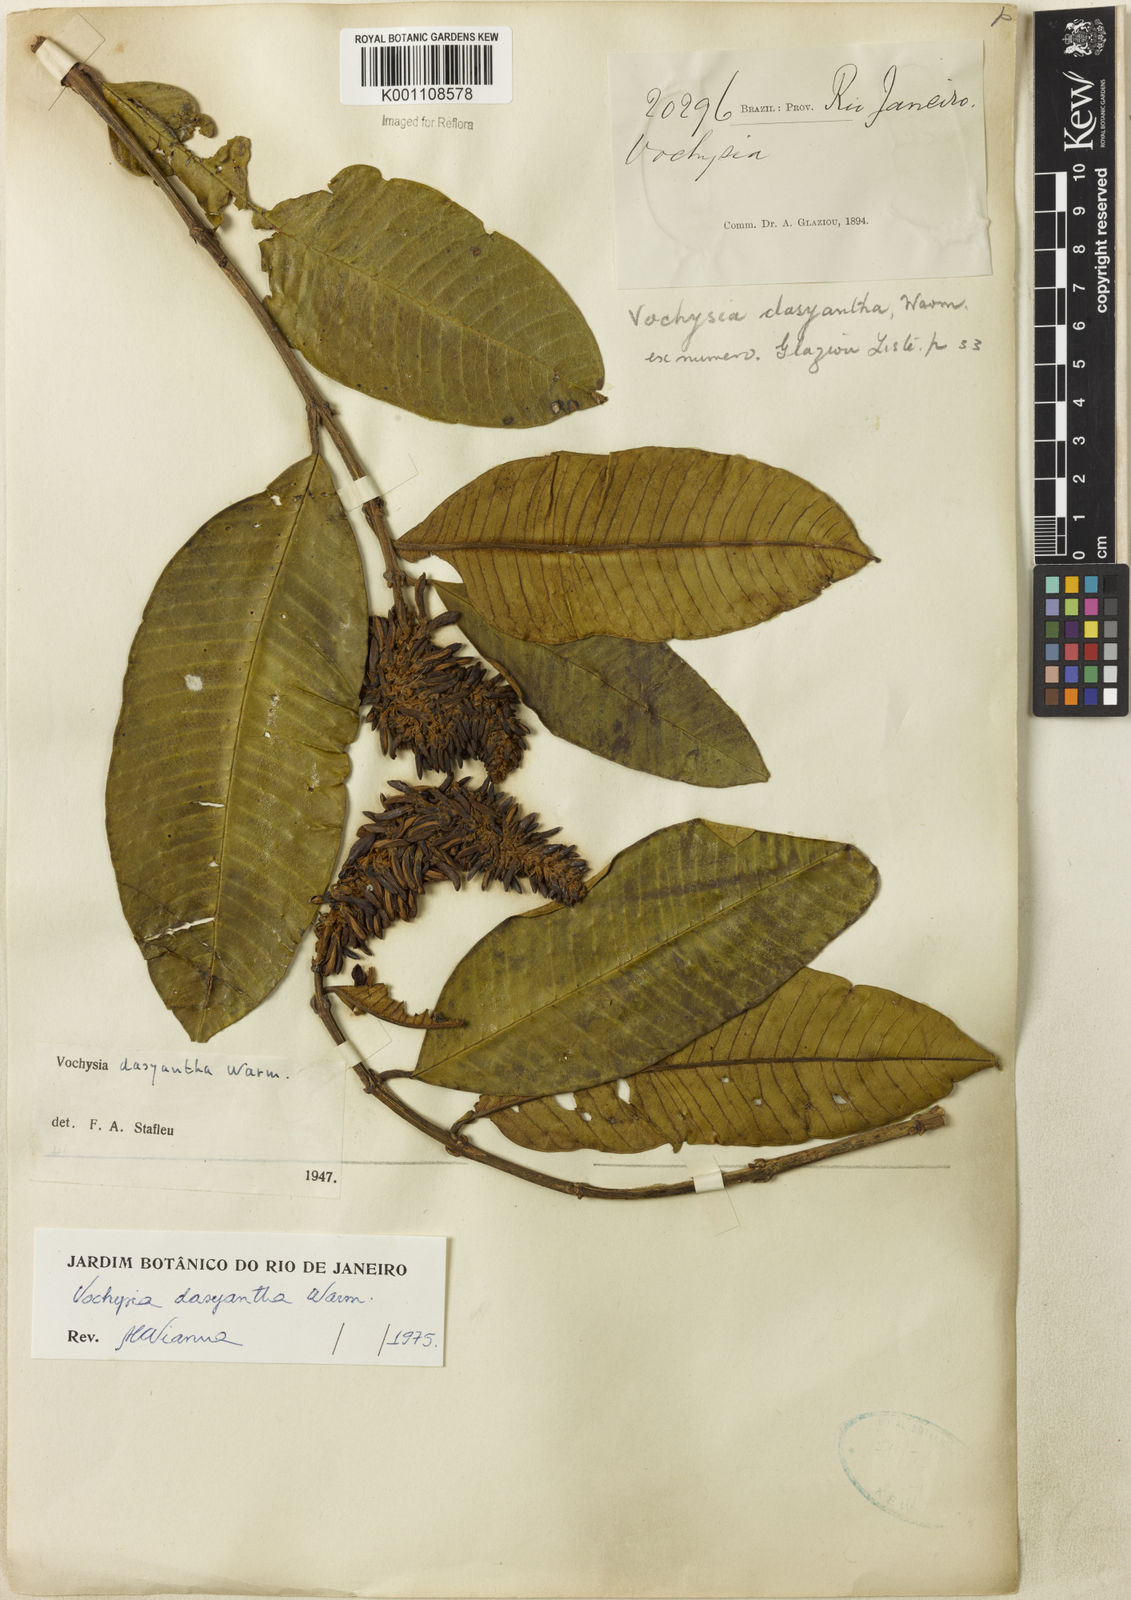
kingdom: Plantae
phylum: Tracheophyta
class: Magnoliopsida
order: Myrtales
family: Vochysiaceae
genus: Vochysia
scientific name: Vochysia dasyantha
